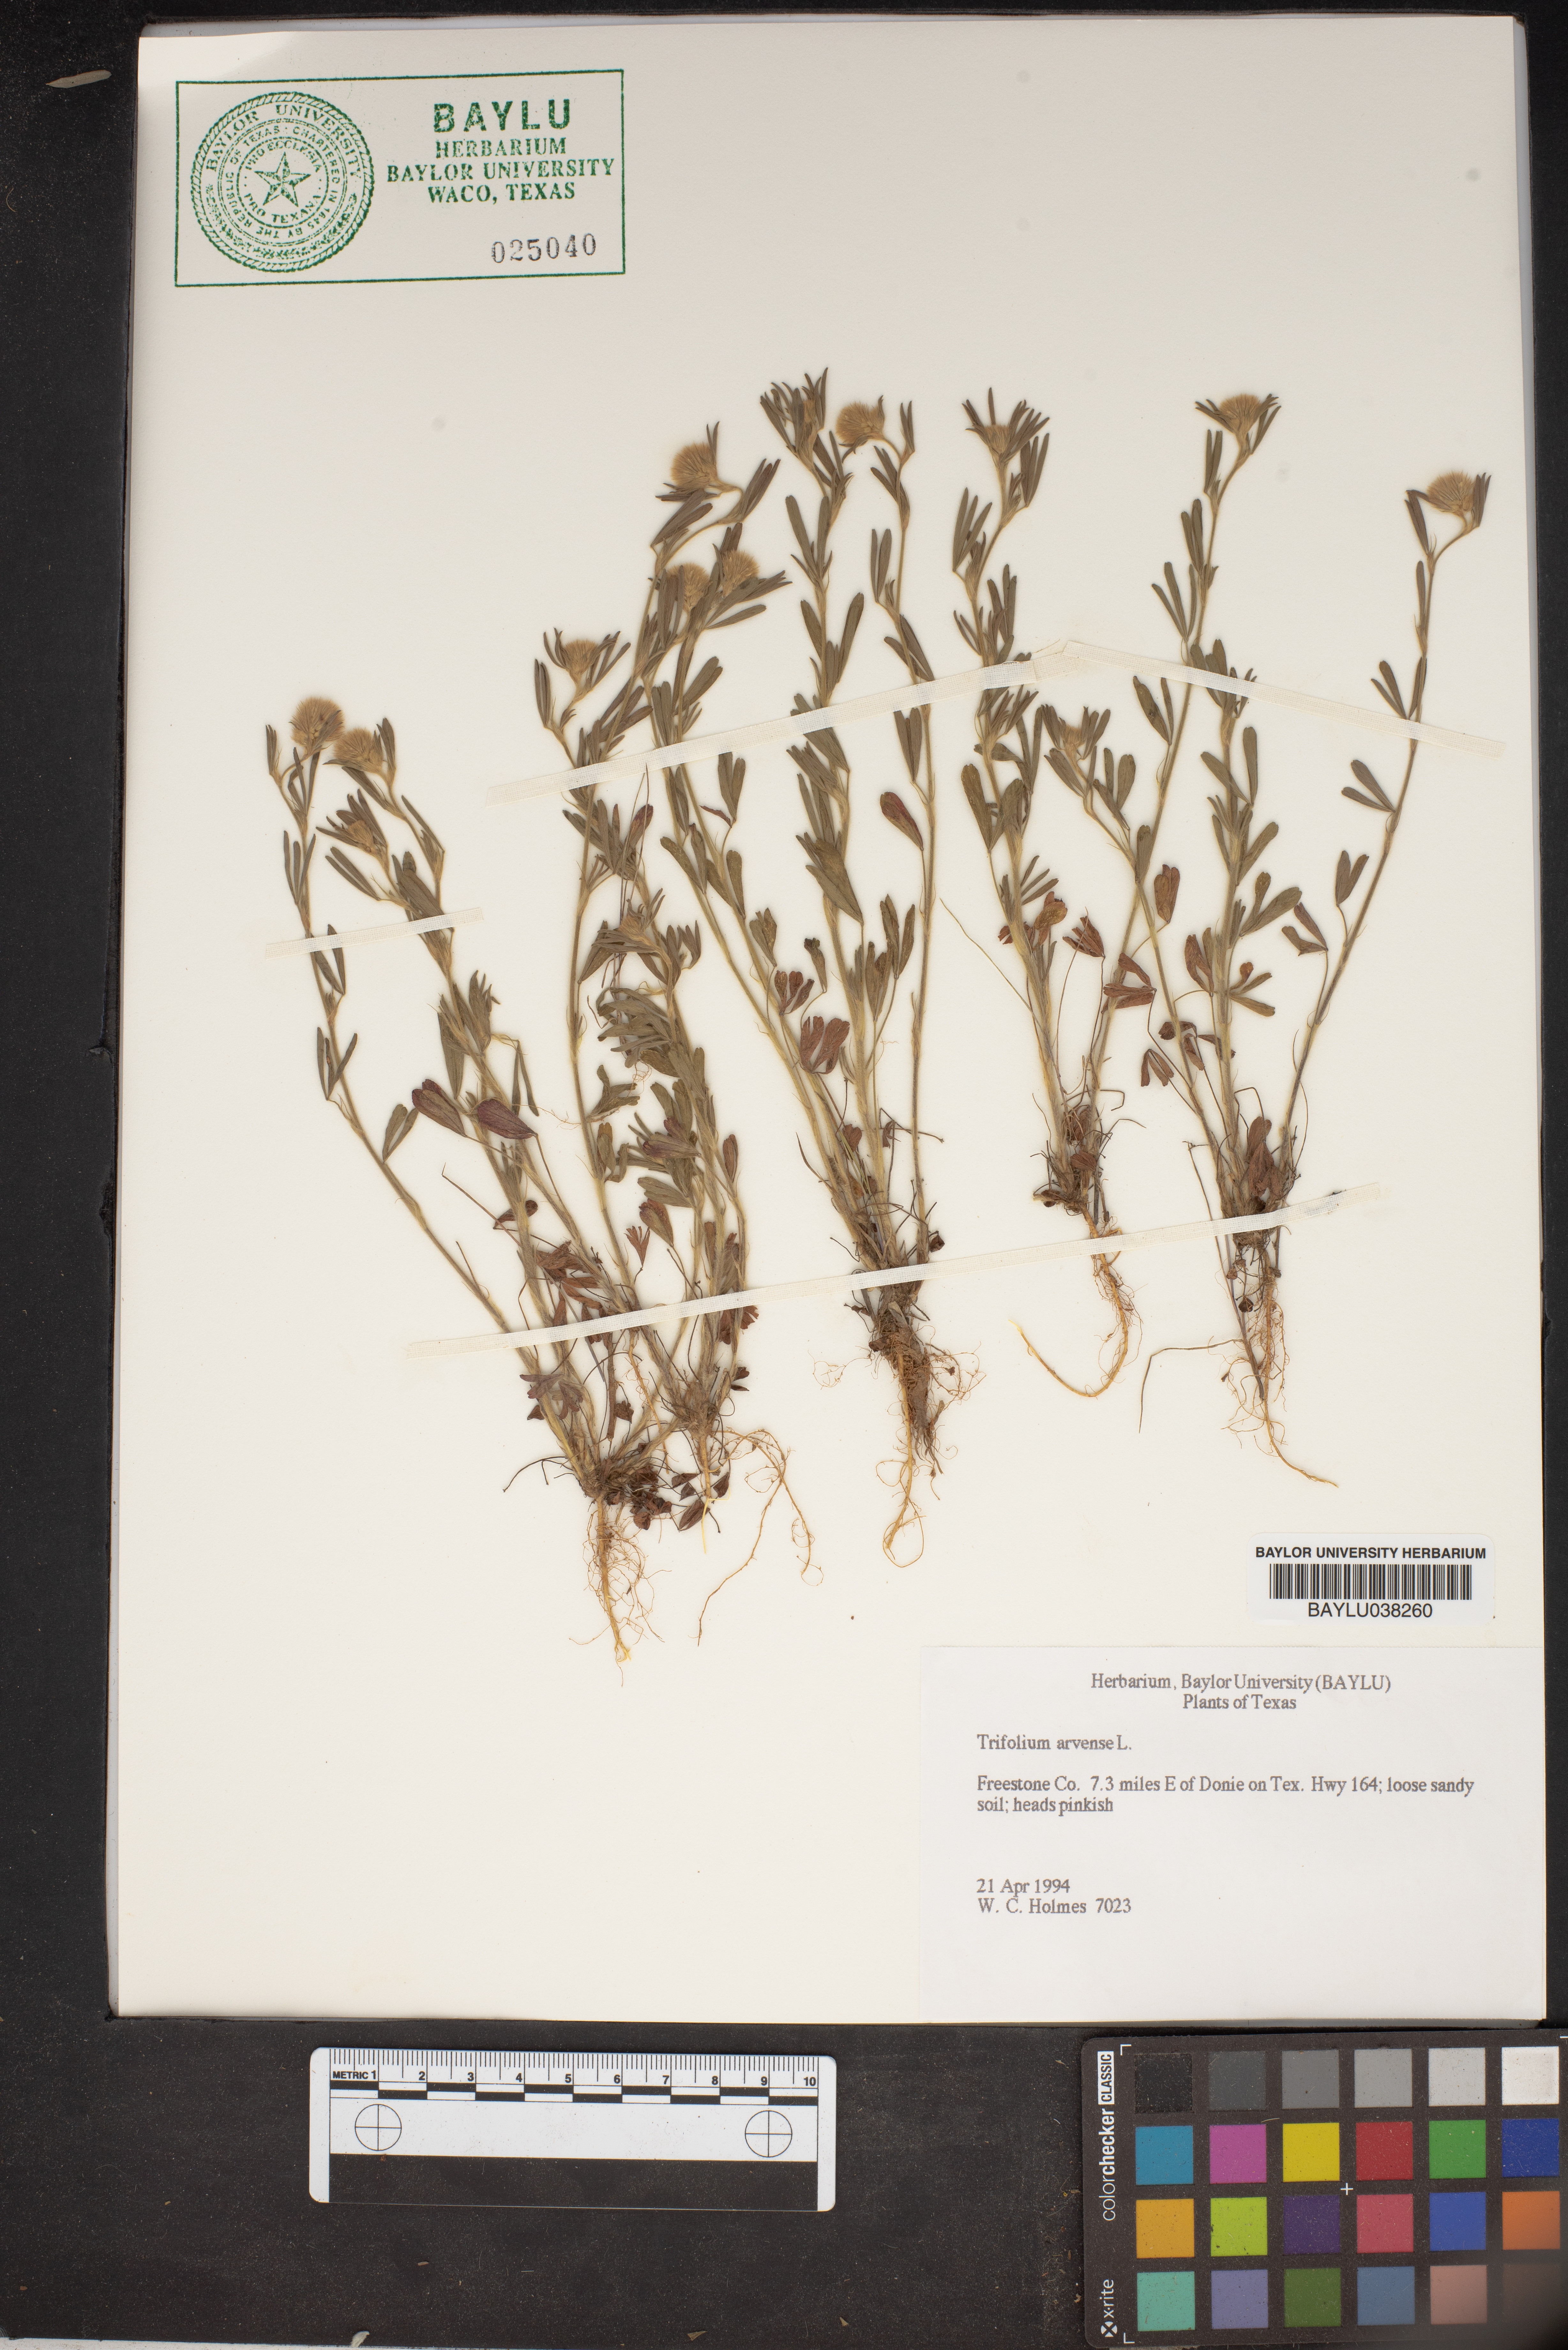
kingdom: Plantae
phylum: Tracheophyta
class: Magnoliopsida
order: Fabales
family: Fabaceae
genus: Trifolium
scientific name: Trifolium arvense
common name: Hare's-foot clover
